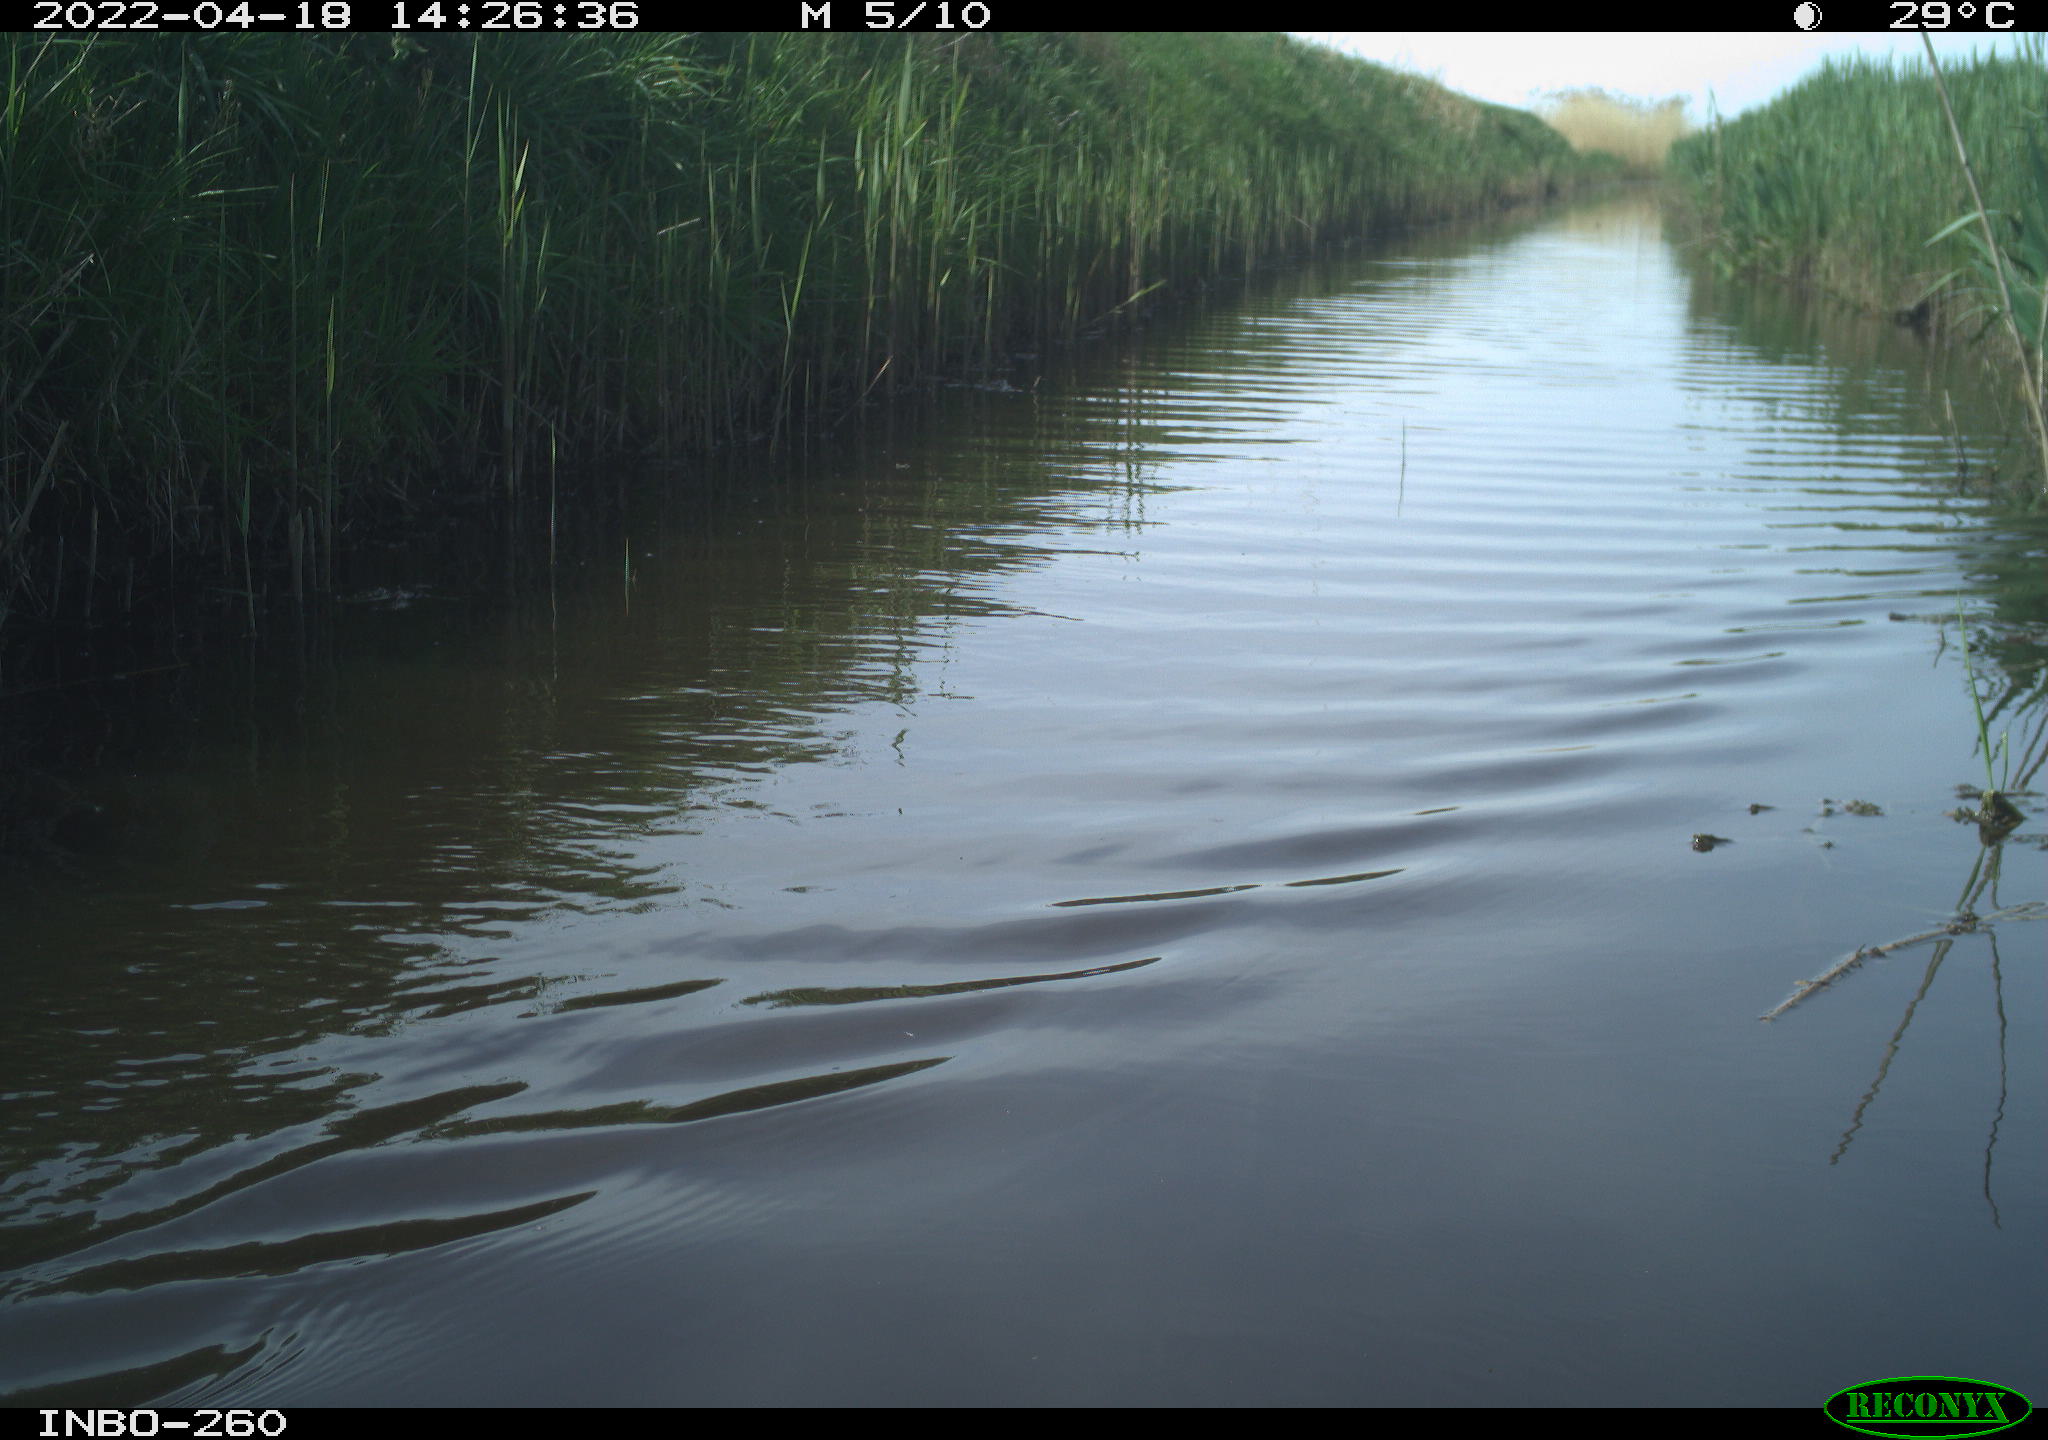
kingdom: Animalia
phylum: Chordata
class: Aves
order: Gruiformes
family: Rallidae
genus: Fulica
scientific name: Fulica atra
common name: Eurasian coot
